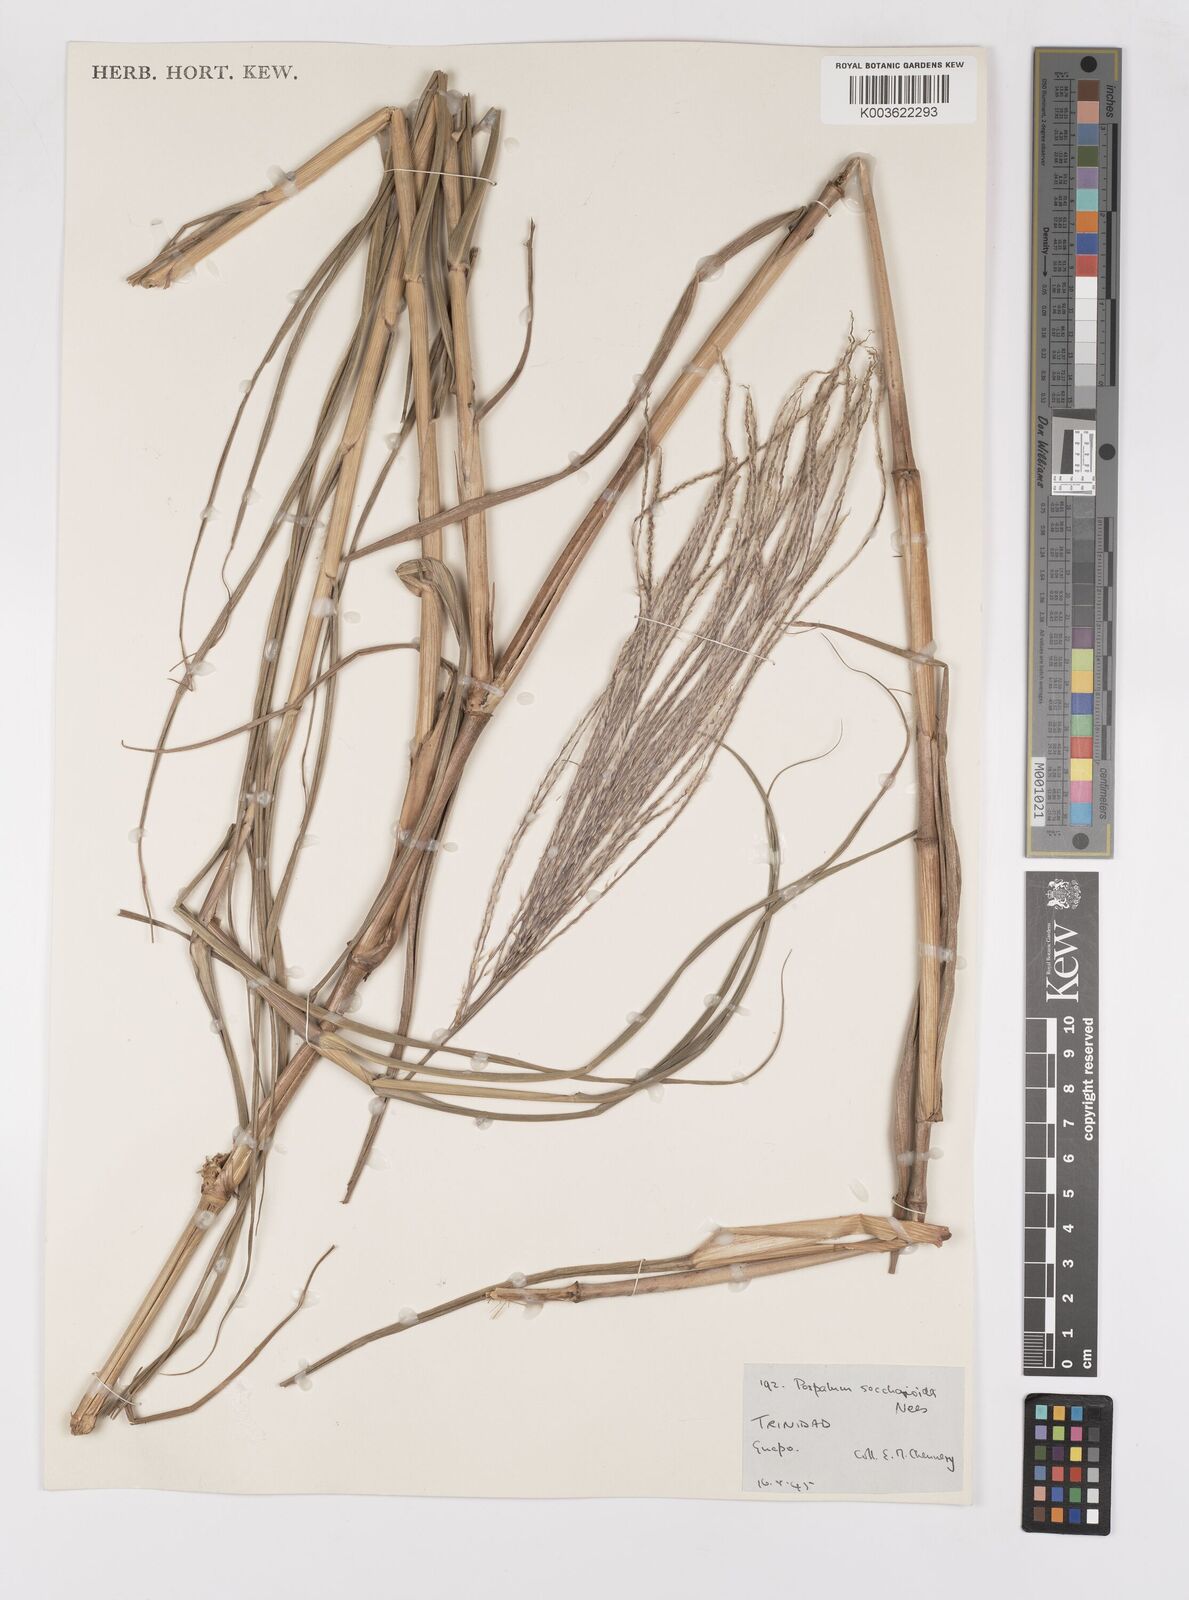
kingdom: Plantae
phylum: Tracheophyta
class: Liliopsida
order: Poales
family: Poaceae
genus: Paspalum
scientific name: Paspalum saccharoides
